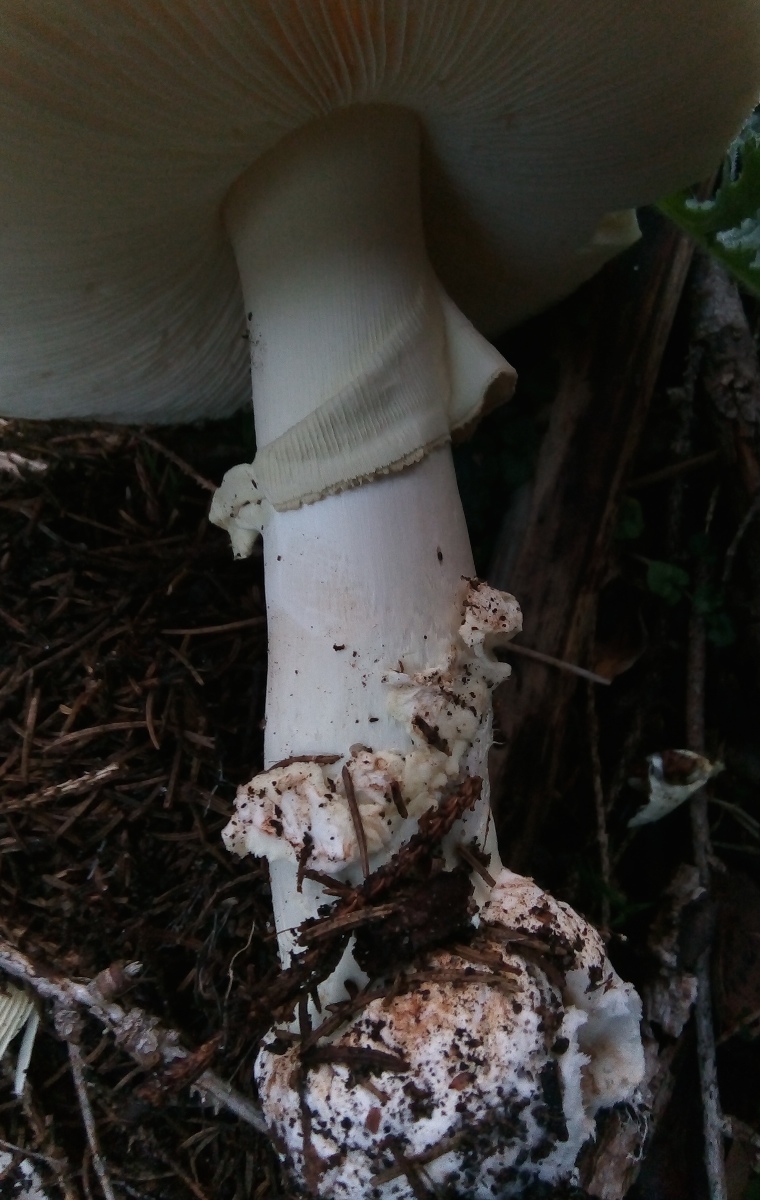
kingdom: Fungi
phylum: Basidiomycota
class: Agaricomycetes
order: Agaricales
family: Amanitaceae
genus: Amanita
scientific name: Amanita citrina
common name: kugleknoldet fluesvamp
